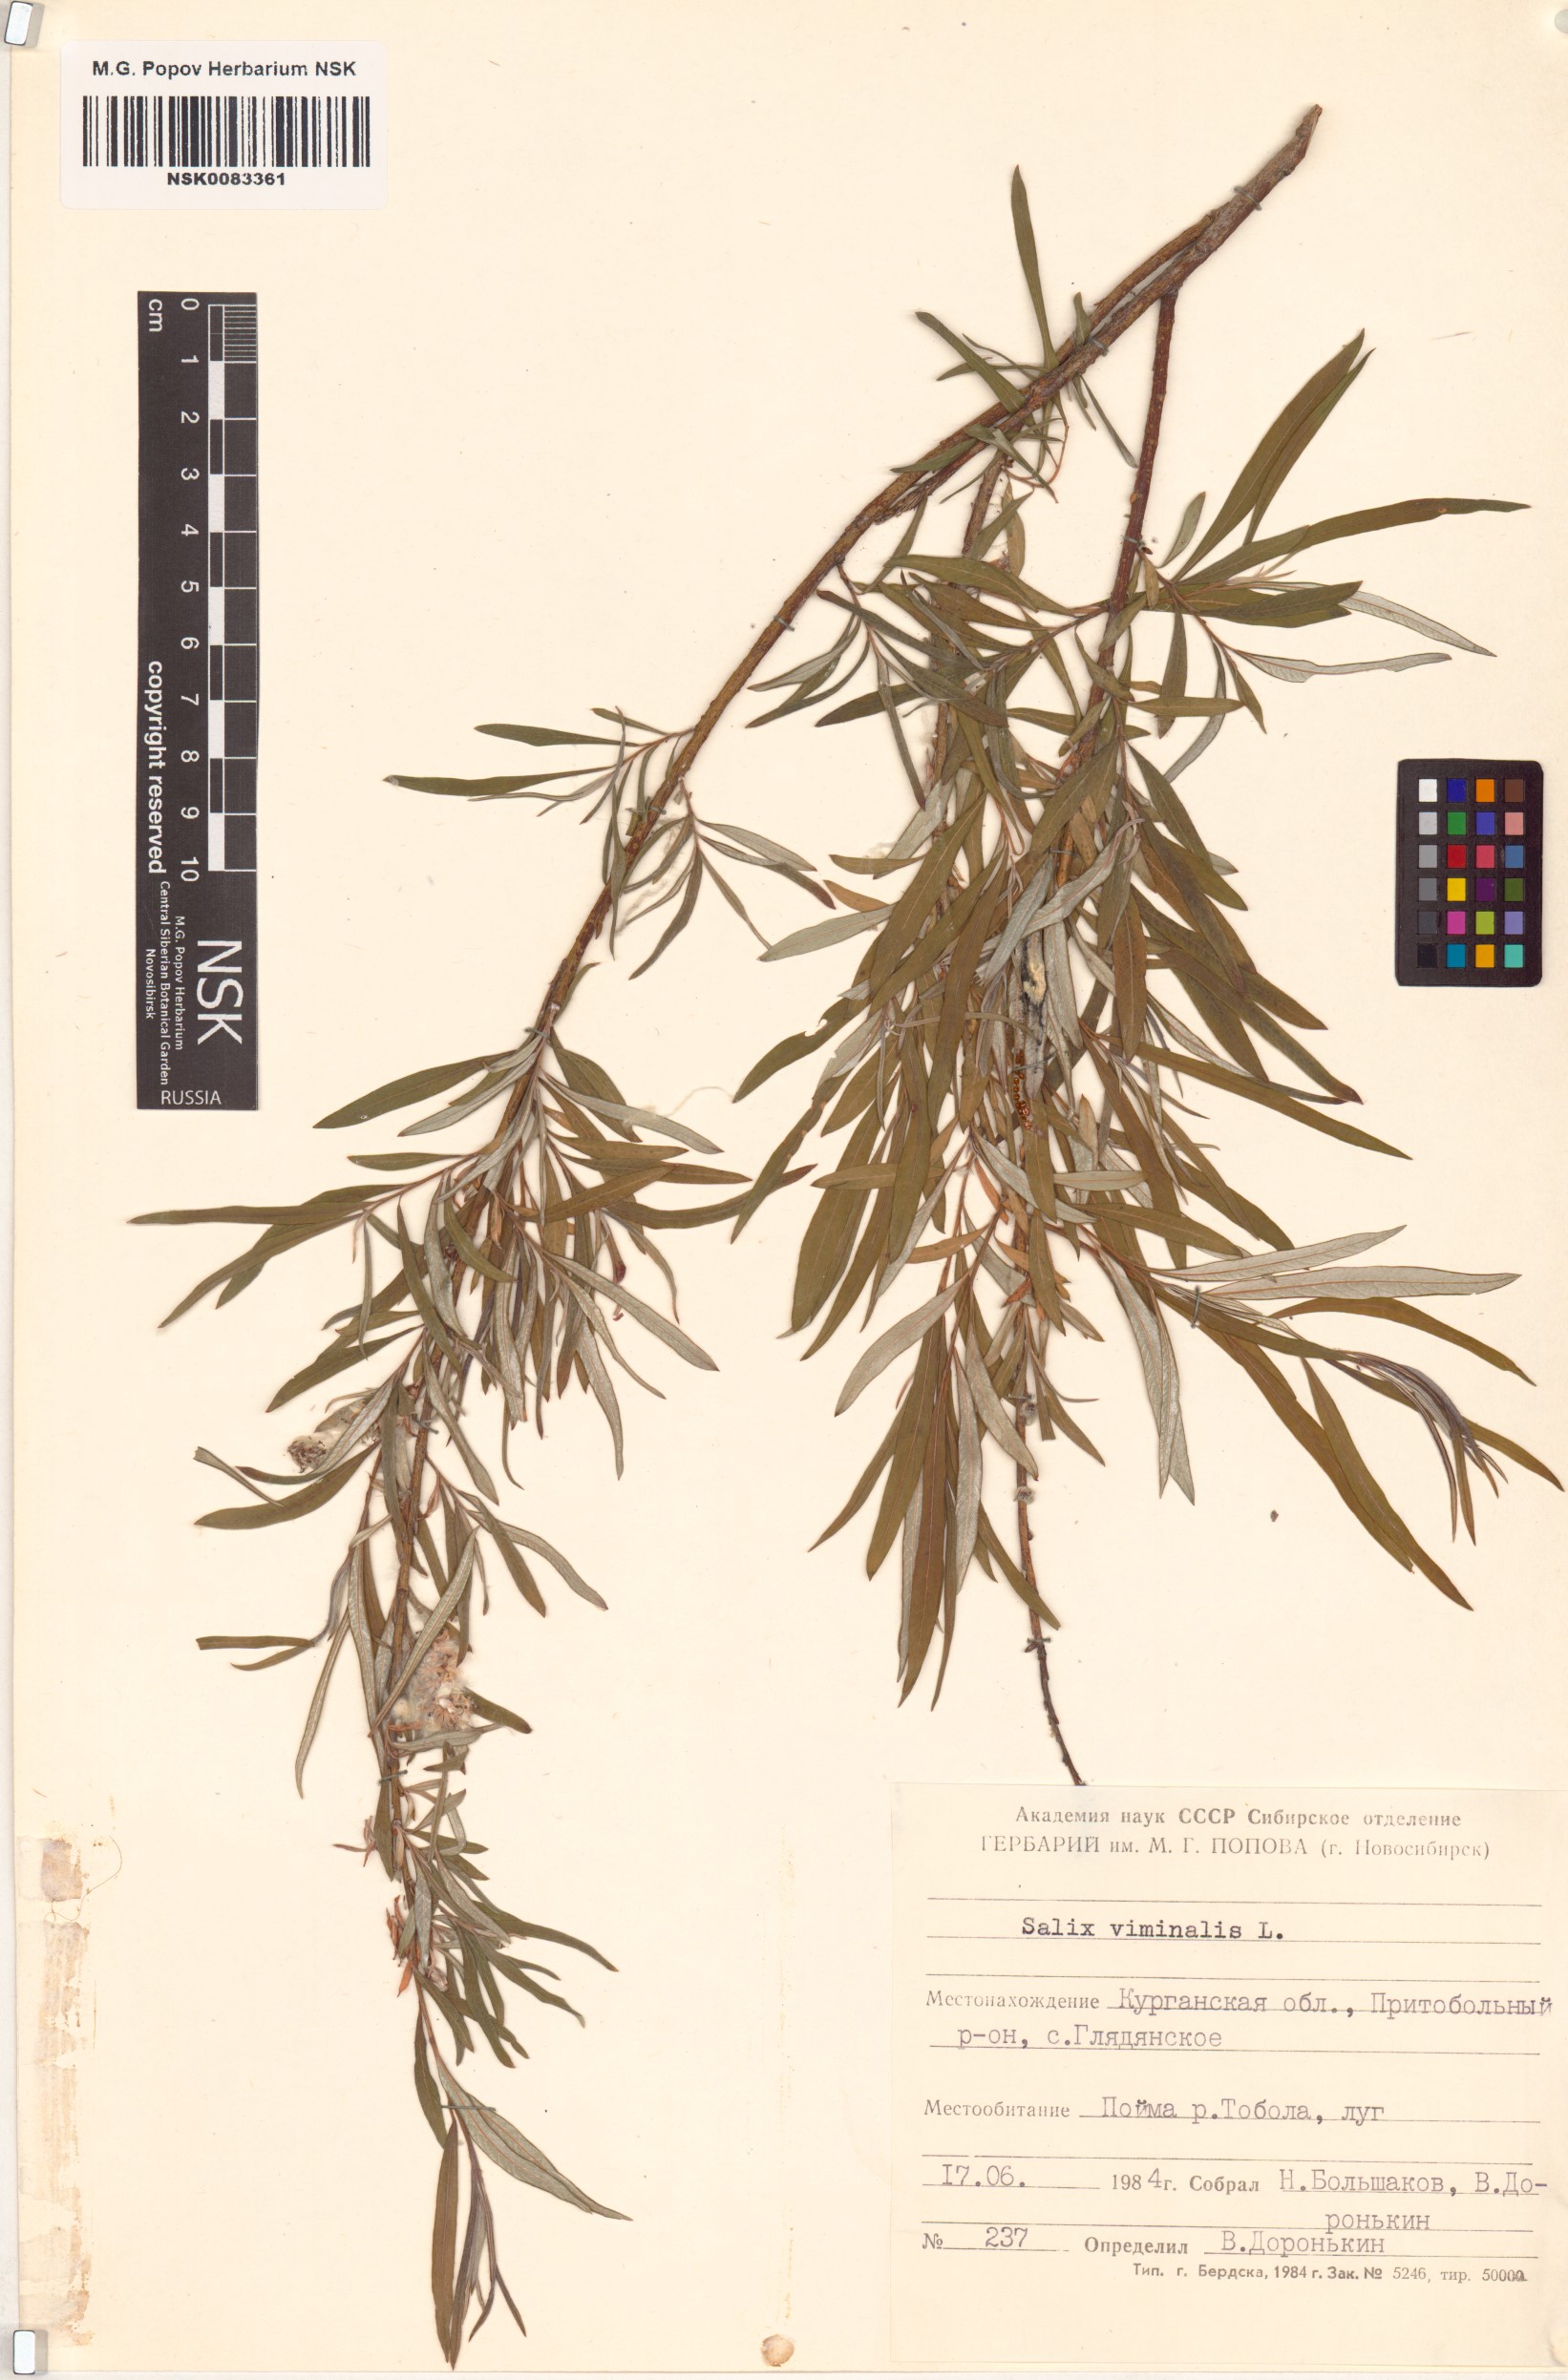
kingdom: Plantae
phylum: Tracheophyta
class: Magnoliopsida
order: Malpighiales
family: Salicaceae
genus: Salix
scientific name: Salix viminalis
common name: Osier
